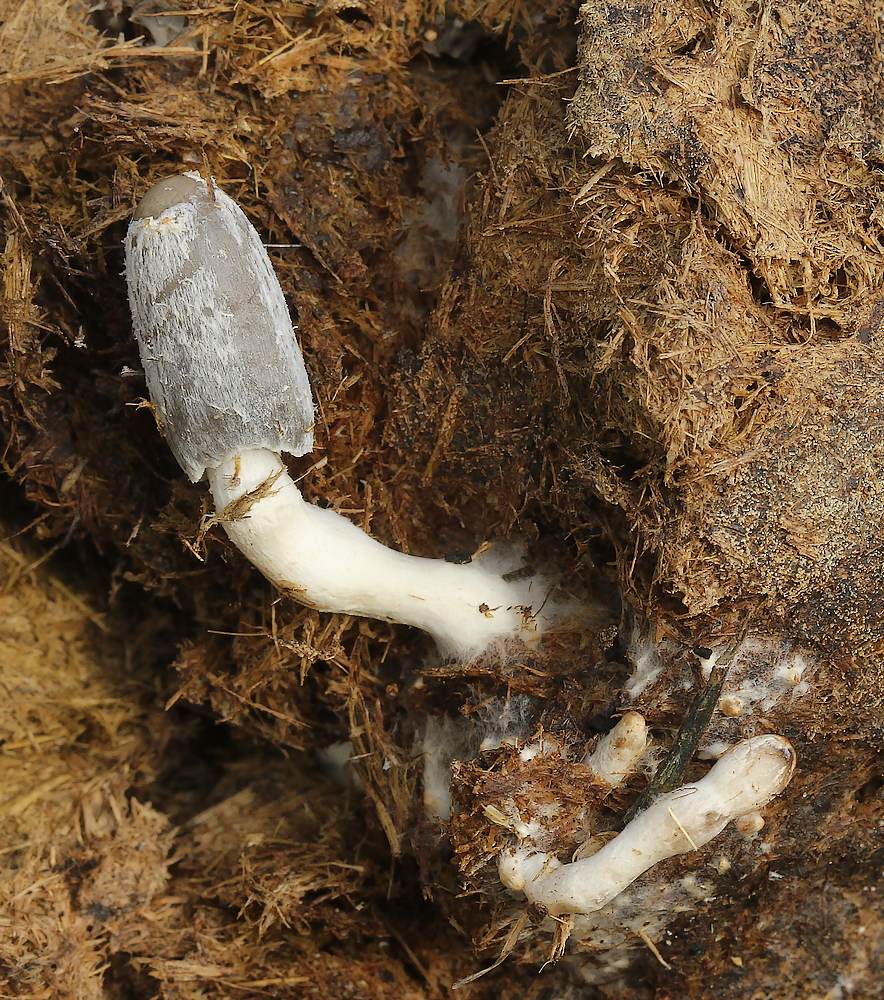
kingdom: Fungi
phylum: Basidiomycota
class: Agaricomycetes
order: Agaricales
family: Psathyrellaceae
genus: Coprinopsis
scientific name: Coprinopsis
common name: blækhat
